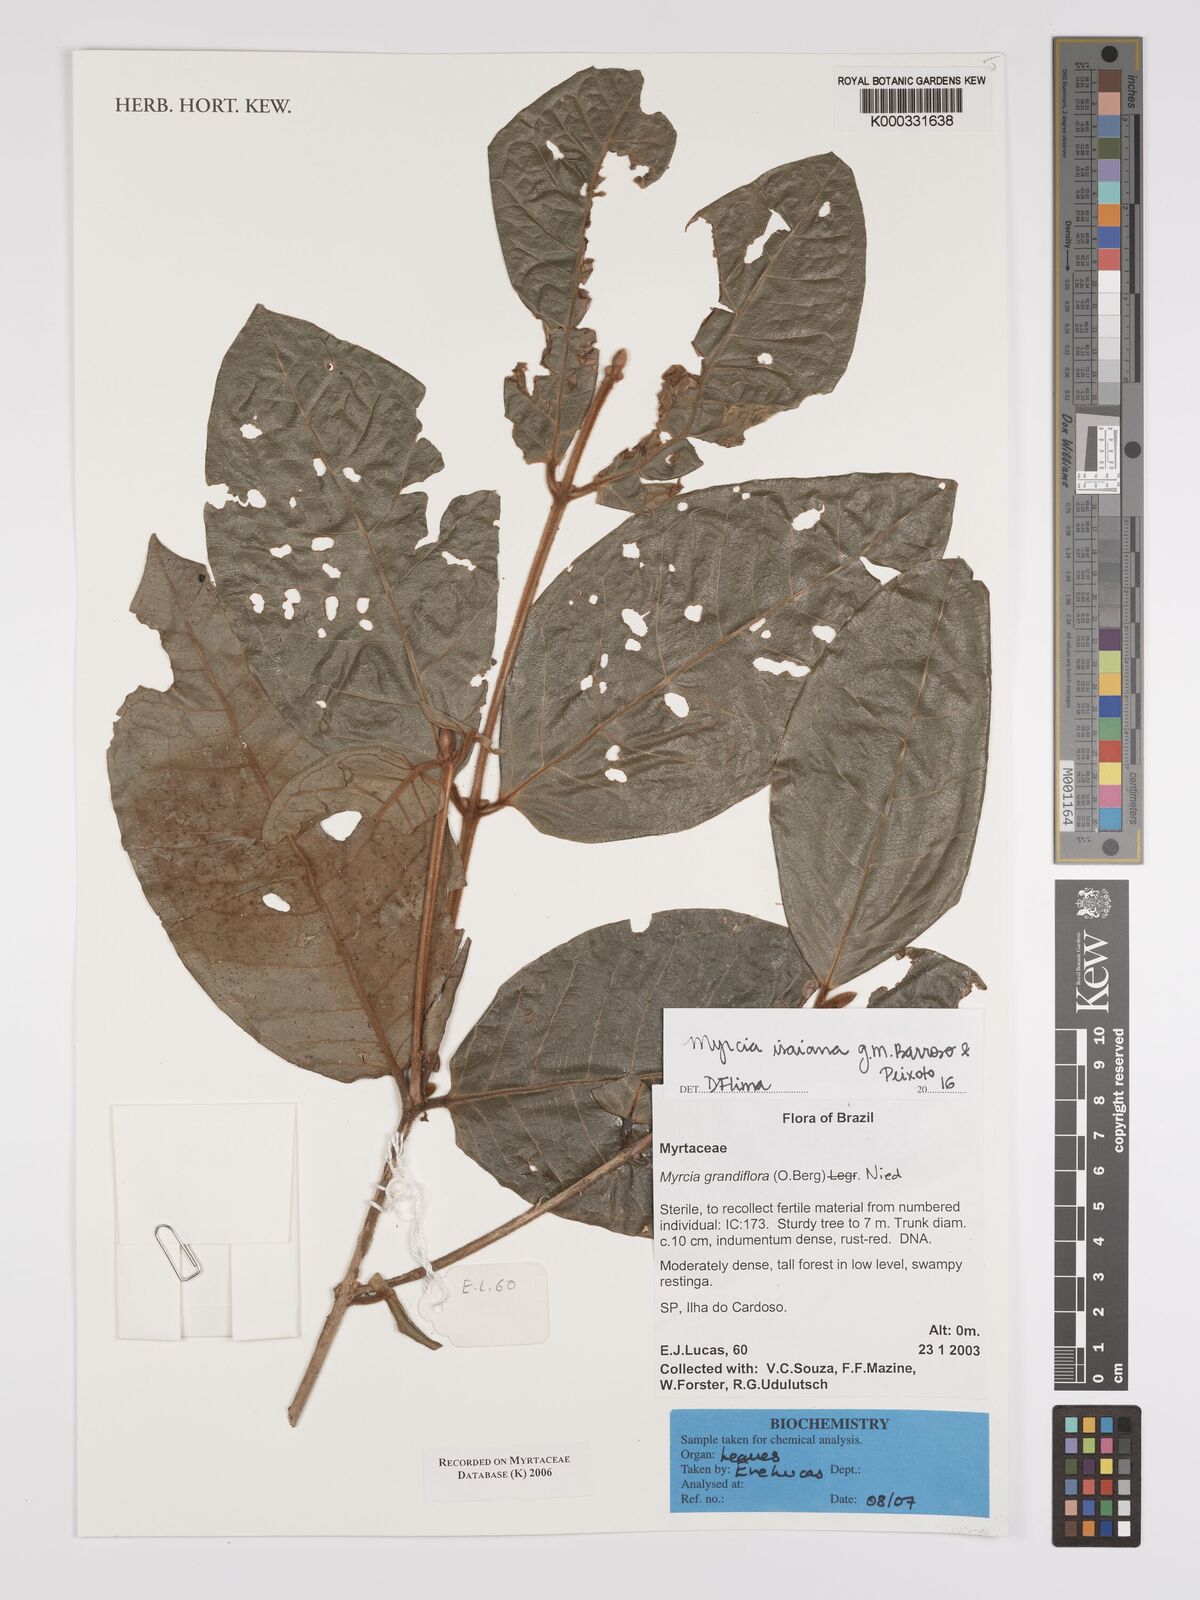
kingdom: Plantae
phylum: Tracheophyta
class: Magnoliopsida
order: Myrtales
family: Myrtaceae
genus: Myrcia
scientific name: Myrcia bathisiifolia
